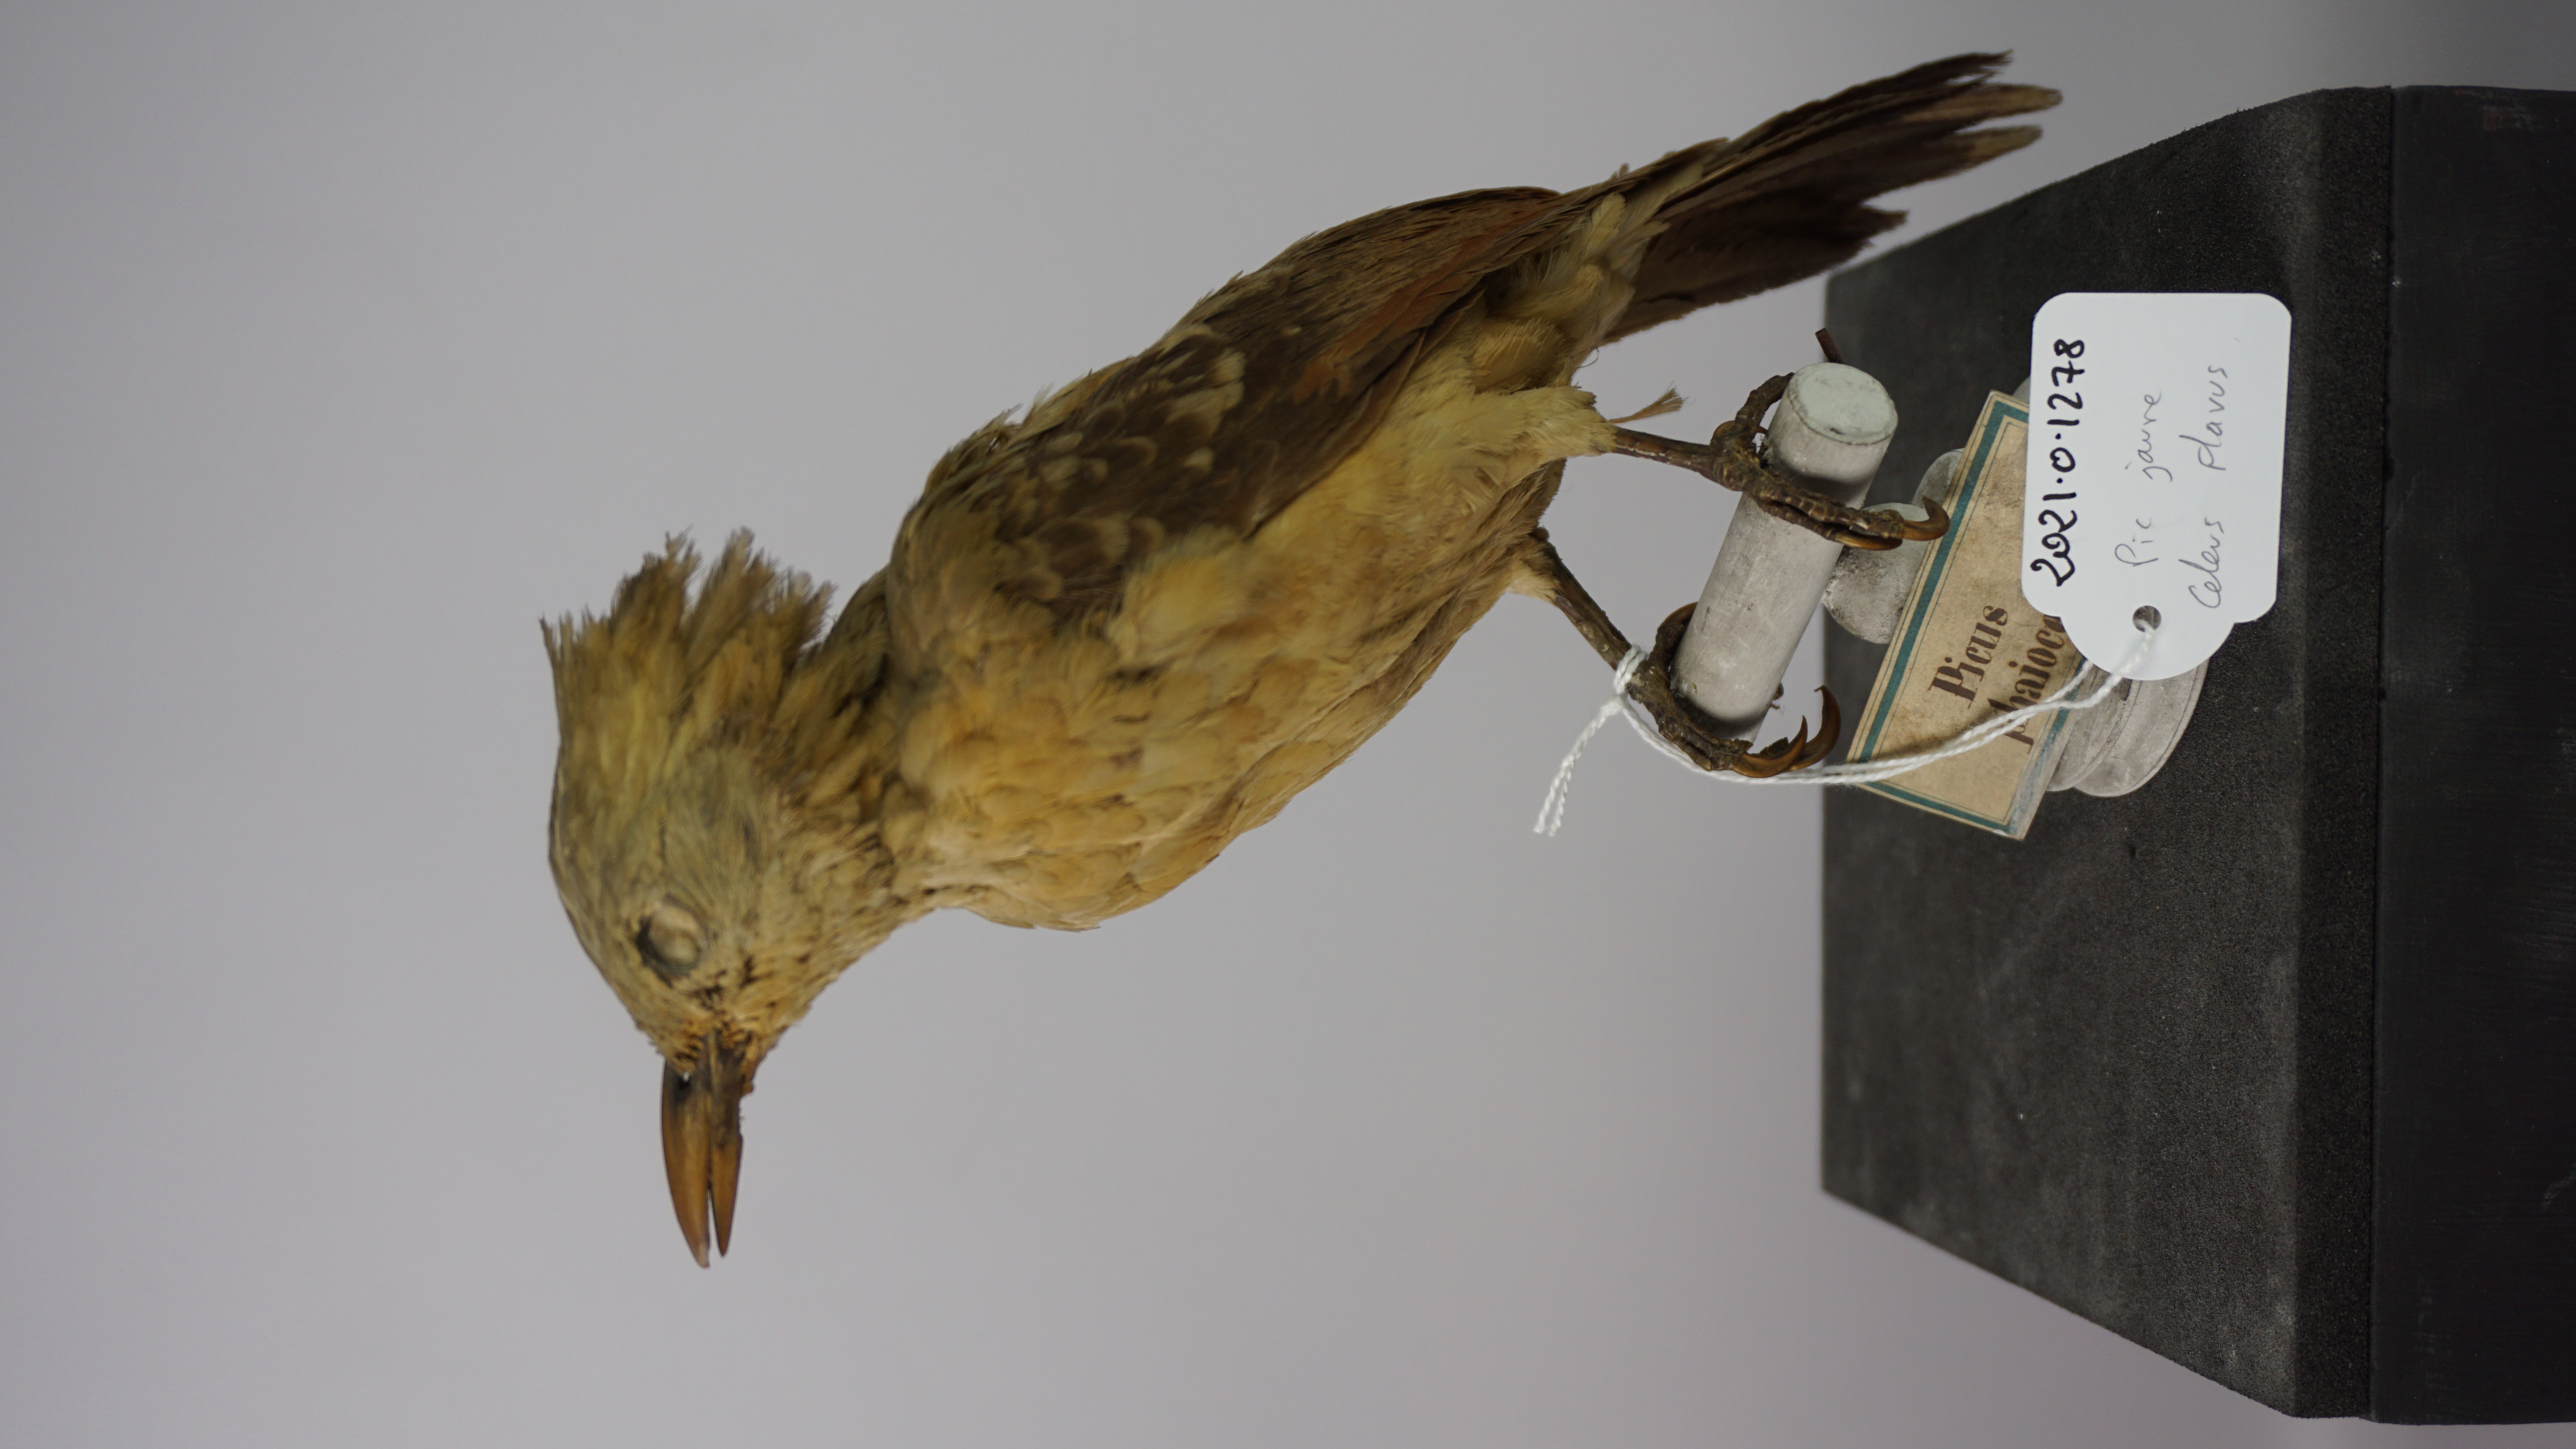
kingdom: Animalia
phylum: Chordata
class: Aves
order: Piciformes
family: Picidae
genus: Celeus
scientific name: Celeus flavus
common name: Cream-colored woodpecker
